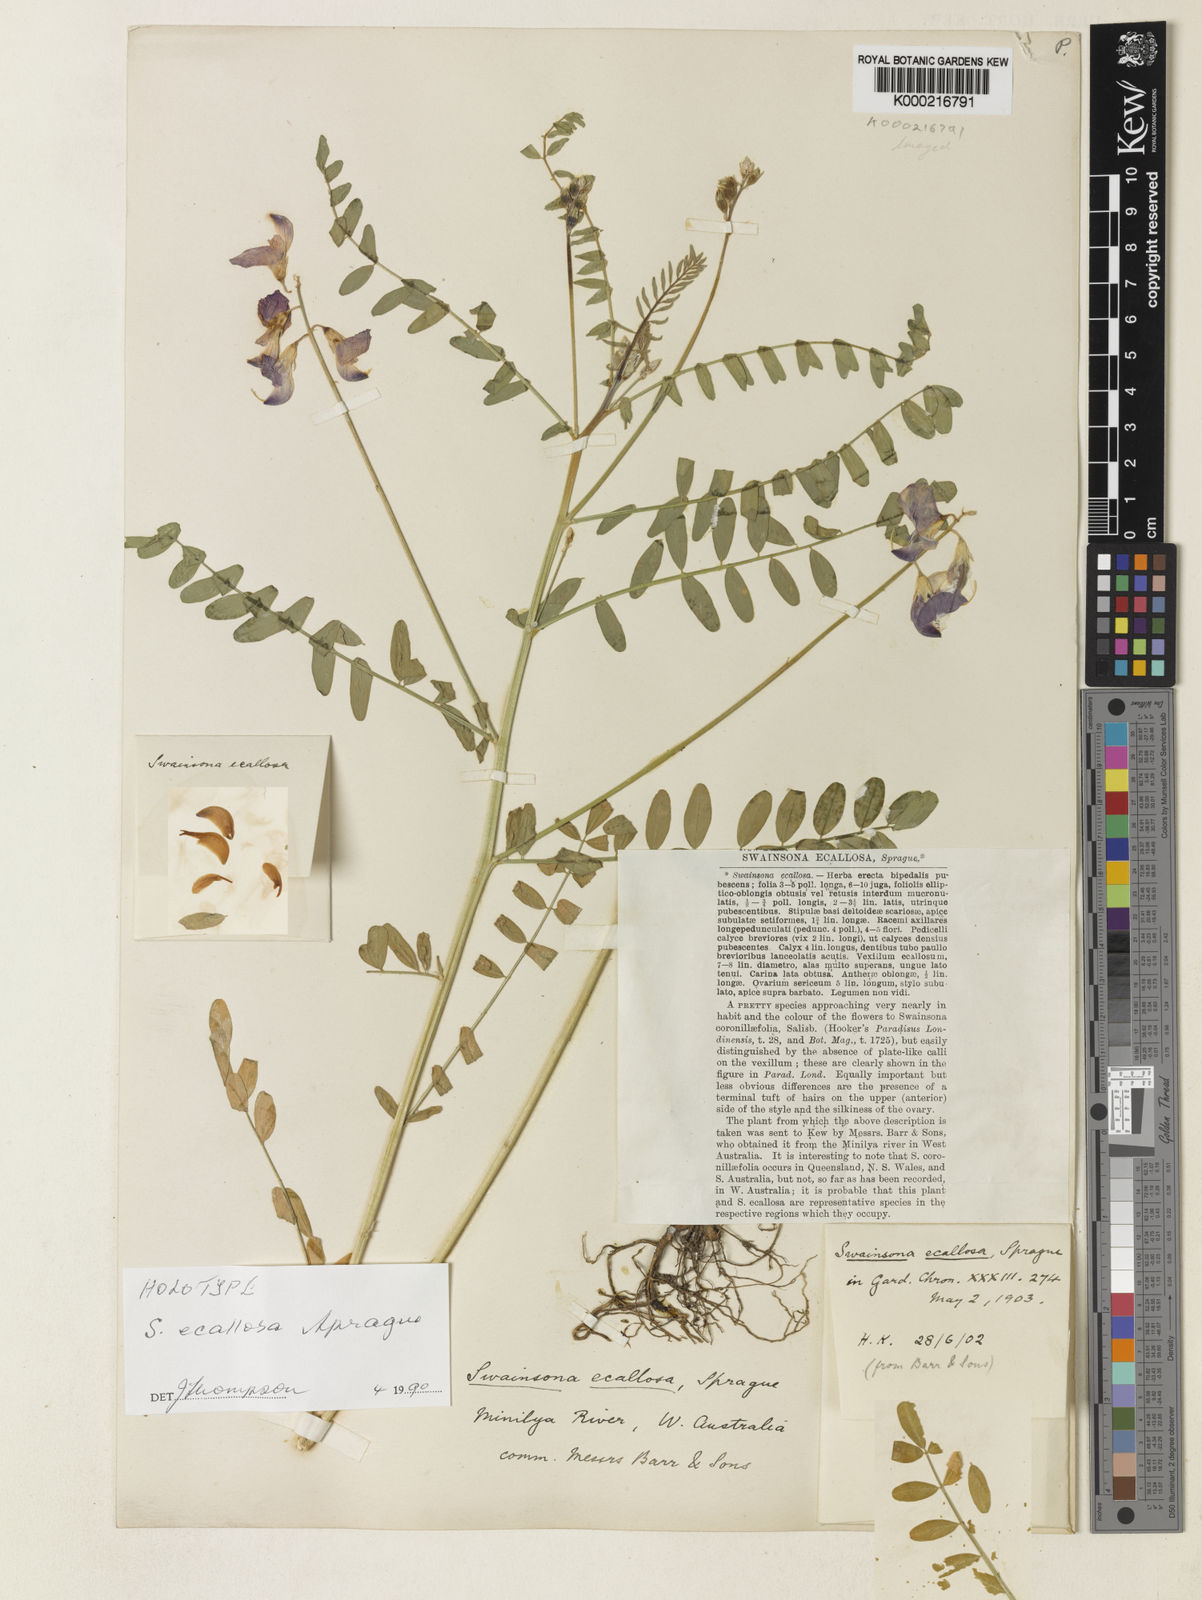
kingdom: Plantae
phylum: Tracheophyta
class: Magnoliopsida
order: Fabales
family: Fabaceae
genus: Swainsona
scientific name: Swainsona ecallosa
